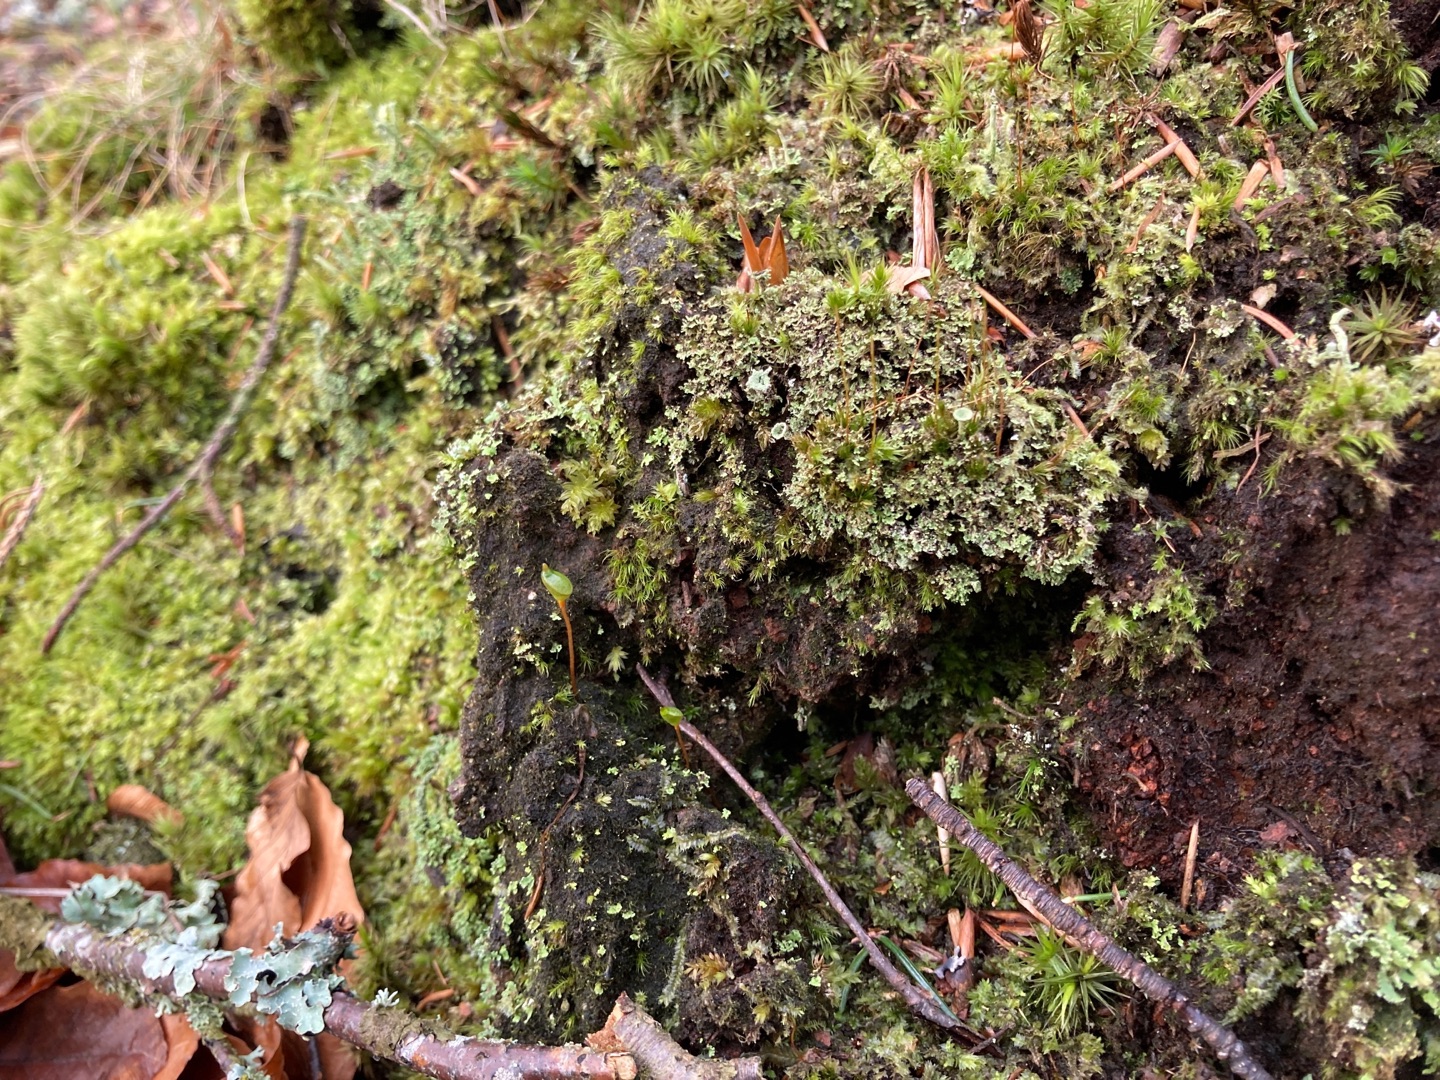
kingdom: Plantae
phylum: Bryophyta
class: Bryopsida
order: Buxbaumiales
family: Buxbaumiaceae
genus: Buxbaumia
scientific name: Buxbaumia aphylla
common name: Rundkapslet buxbaumia
